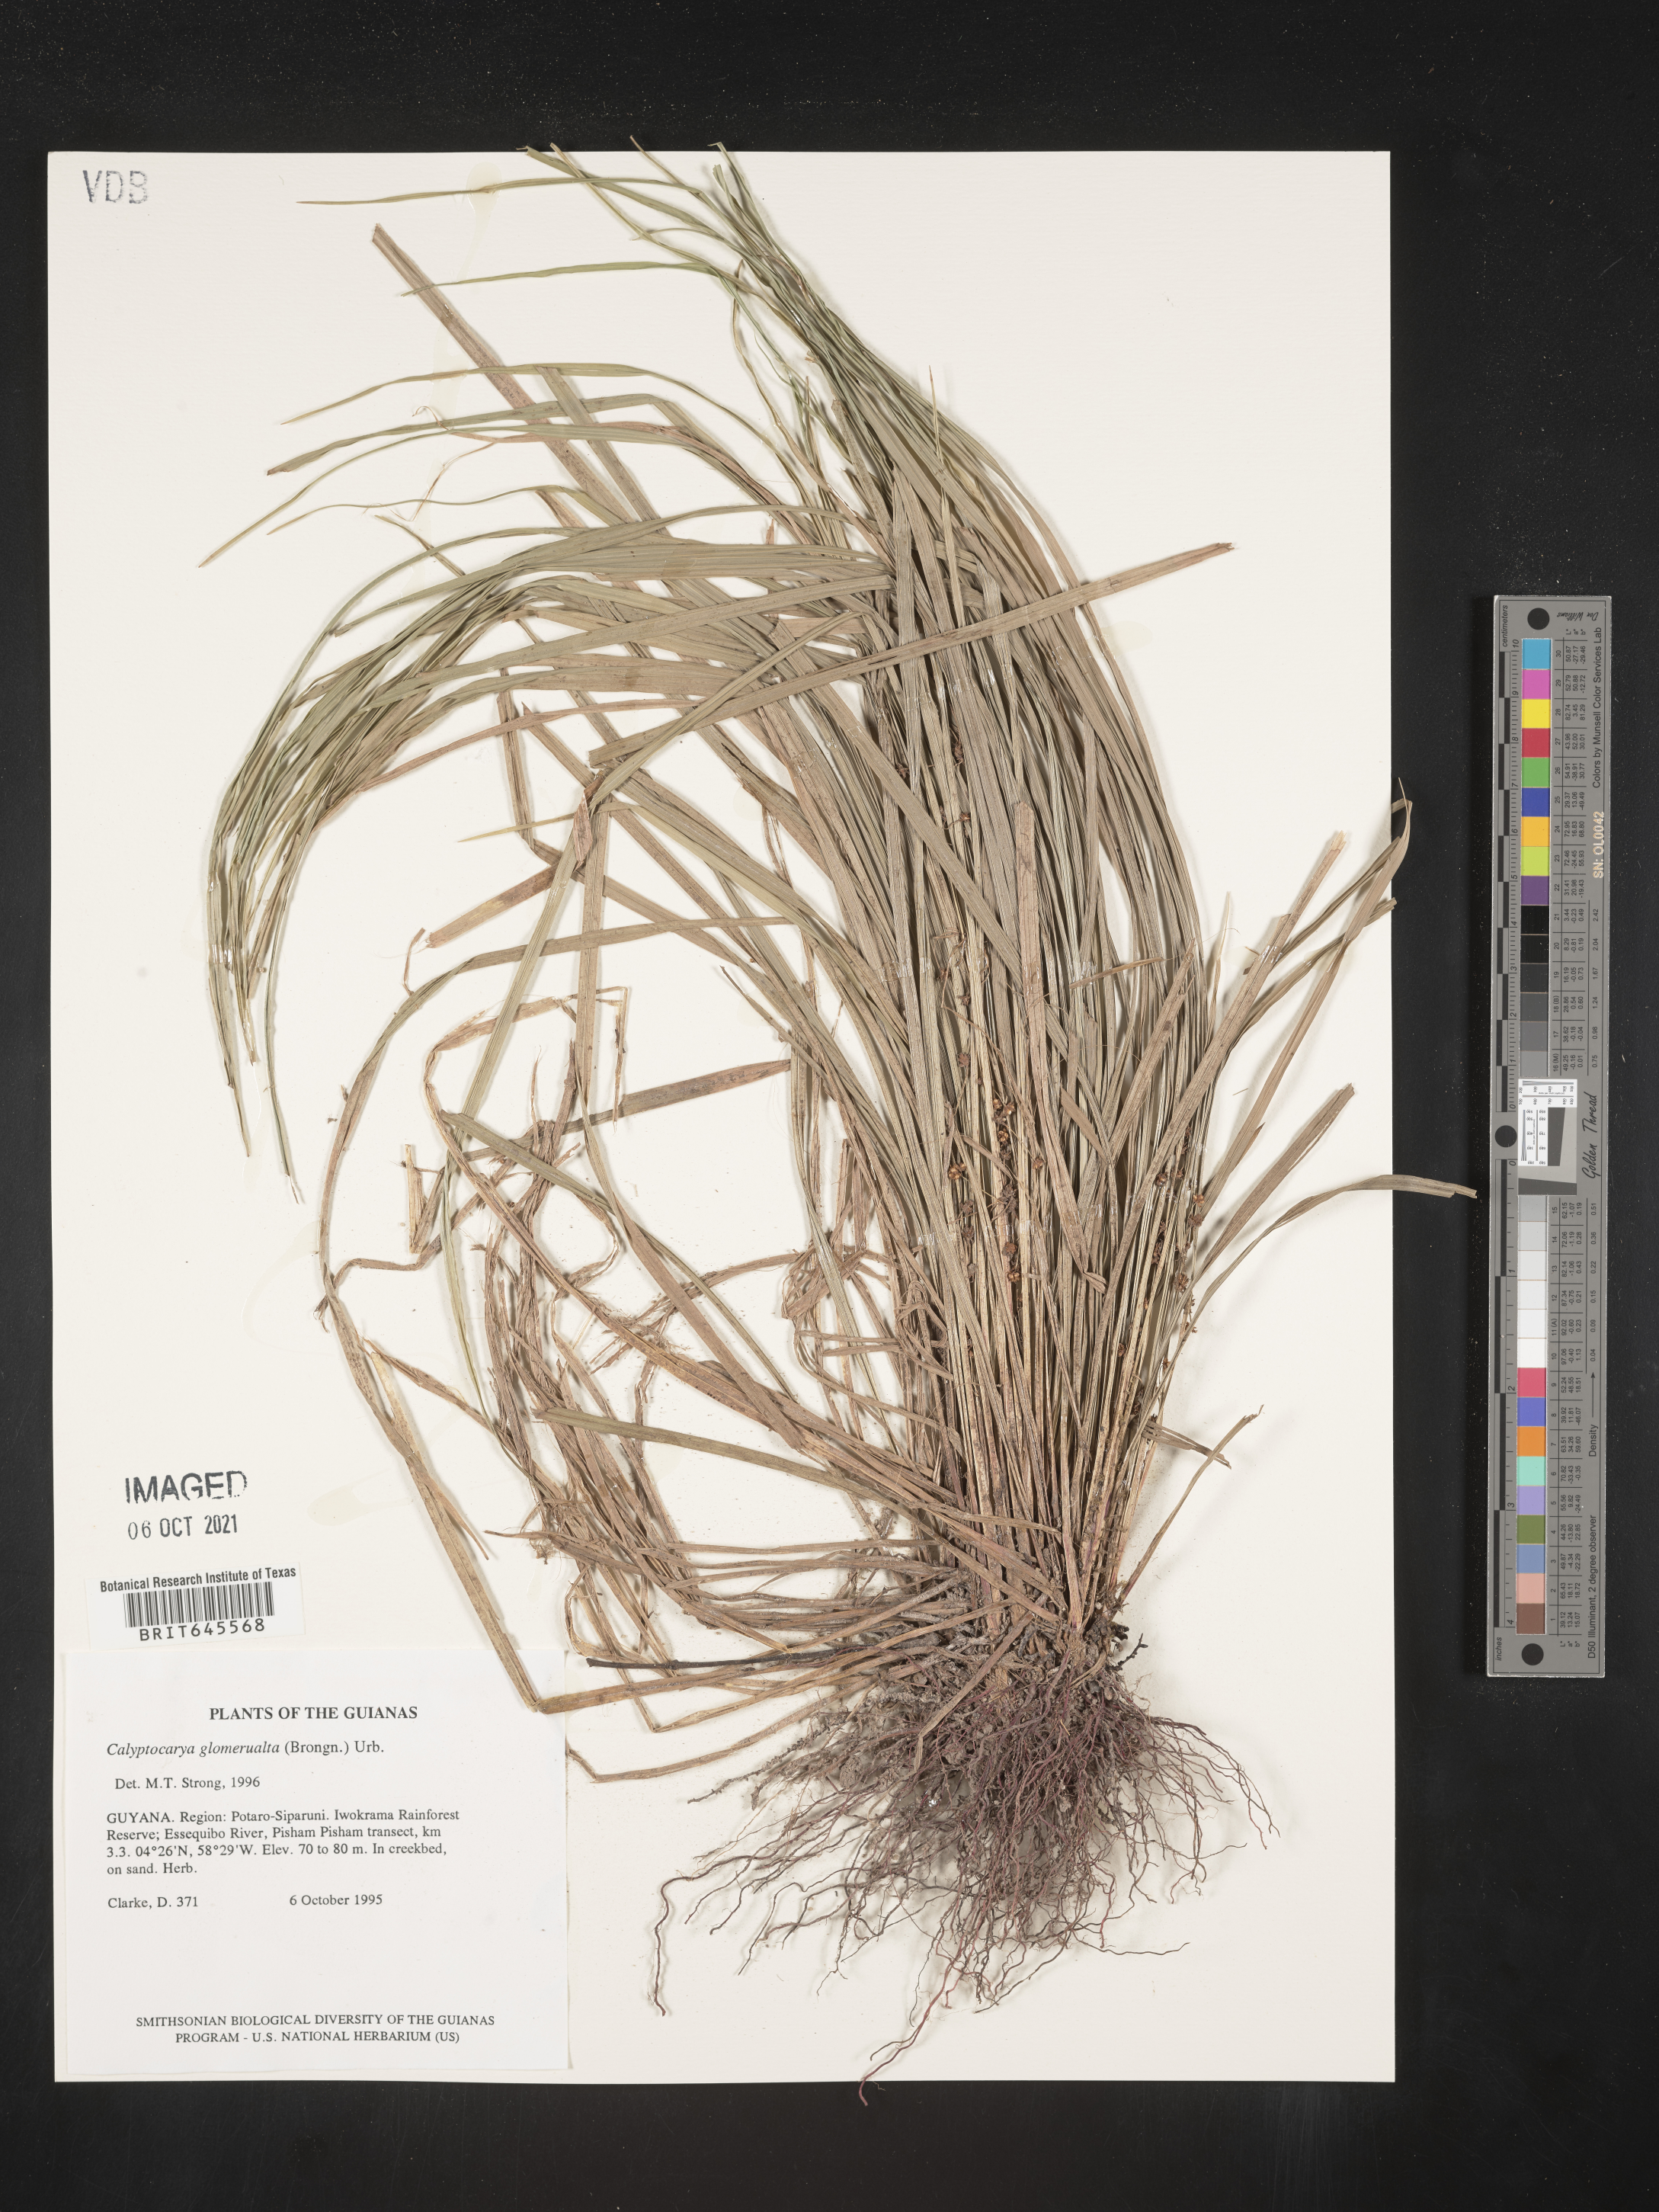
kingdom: Plantae
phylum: Tracheophyta
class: Liliopsida
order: Poales
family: Cyperaceae
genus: Calyptrocarya
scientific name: Calyptrocarya glomerulata
